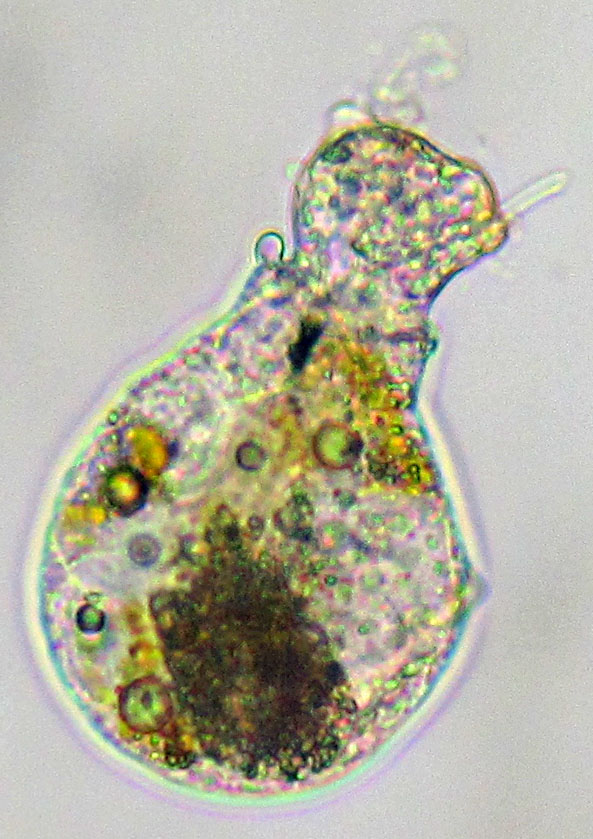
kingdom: Animalia
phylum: Rotifera
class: Eurotatoria
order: Ploima
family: Gastropodidae
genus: Gastropus
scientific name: Gastropus stylifer
